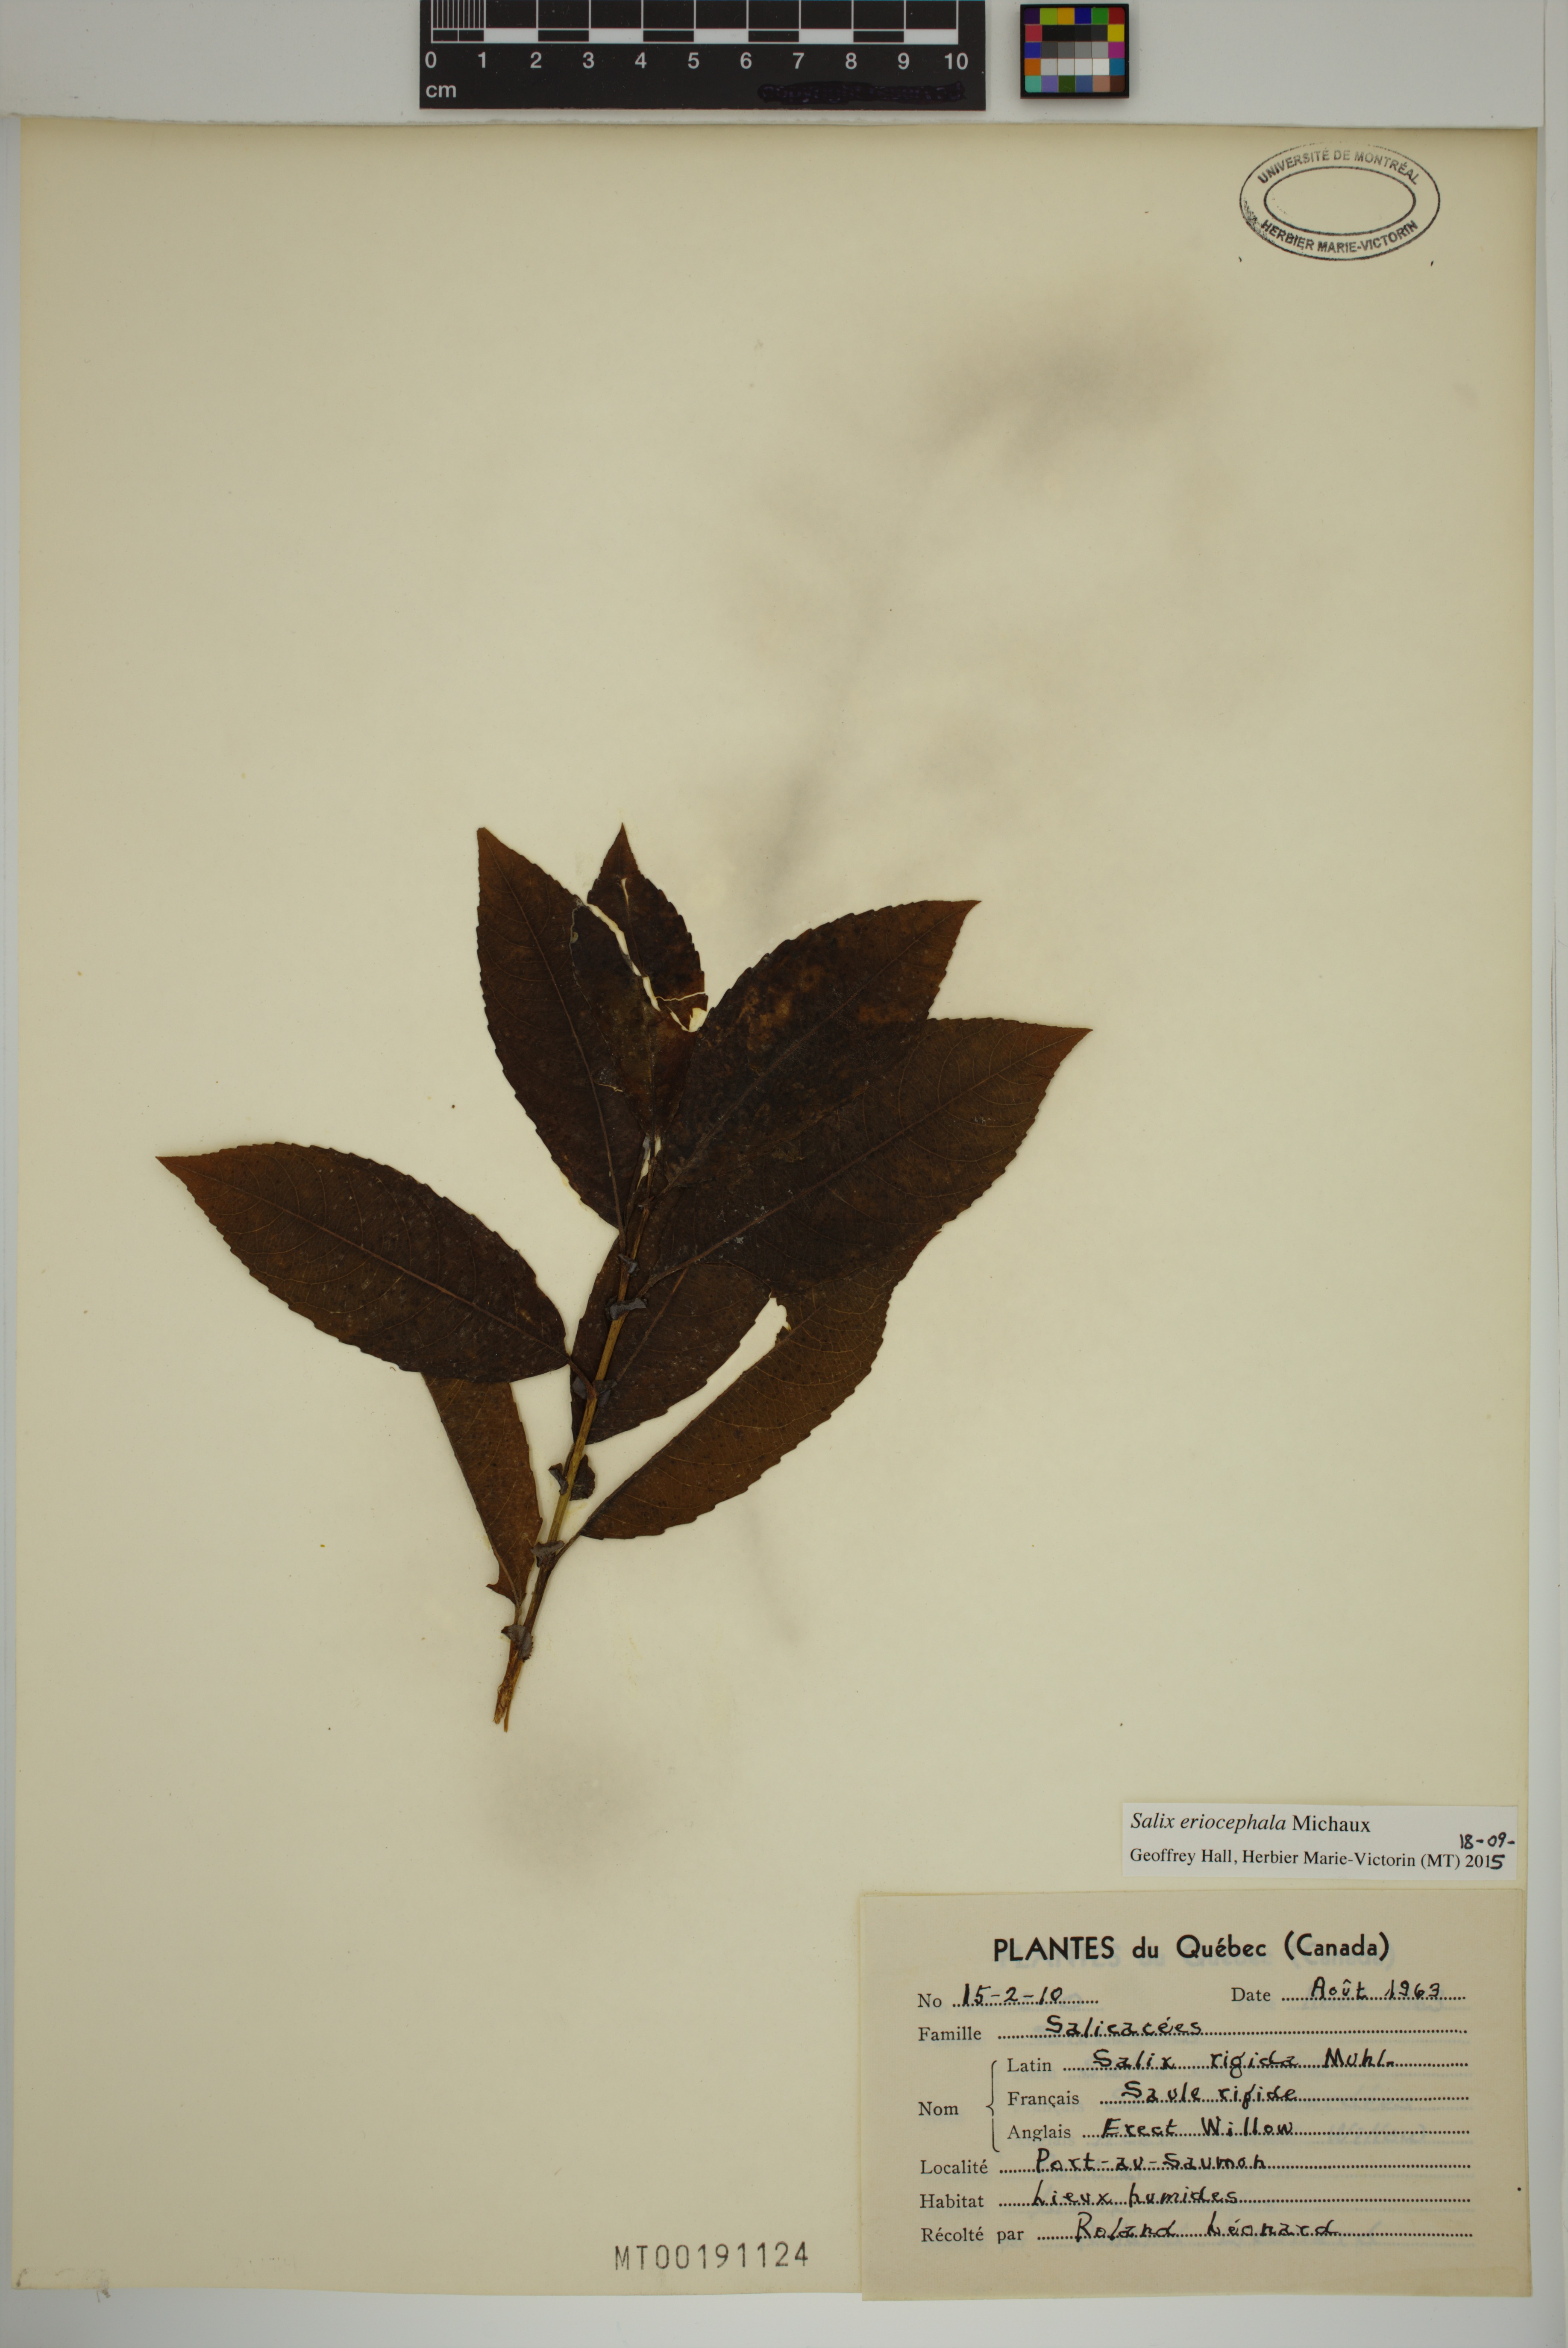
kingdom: Plantae
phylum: Tracheophyta
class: Magnoliopsida
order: Malpighiales
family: Salicaceae
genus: Salix
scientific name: Salix eriocephala
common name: Heart-leaved willow
